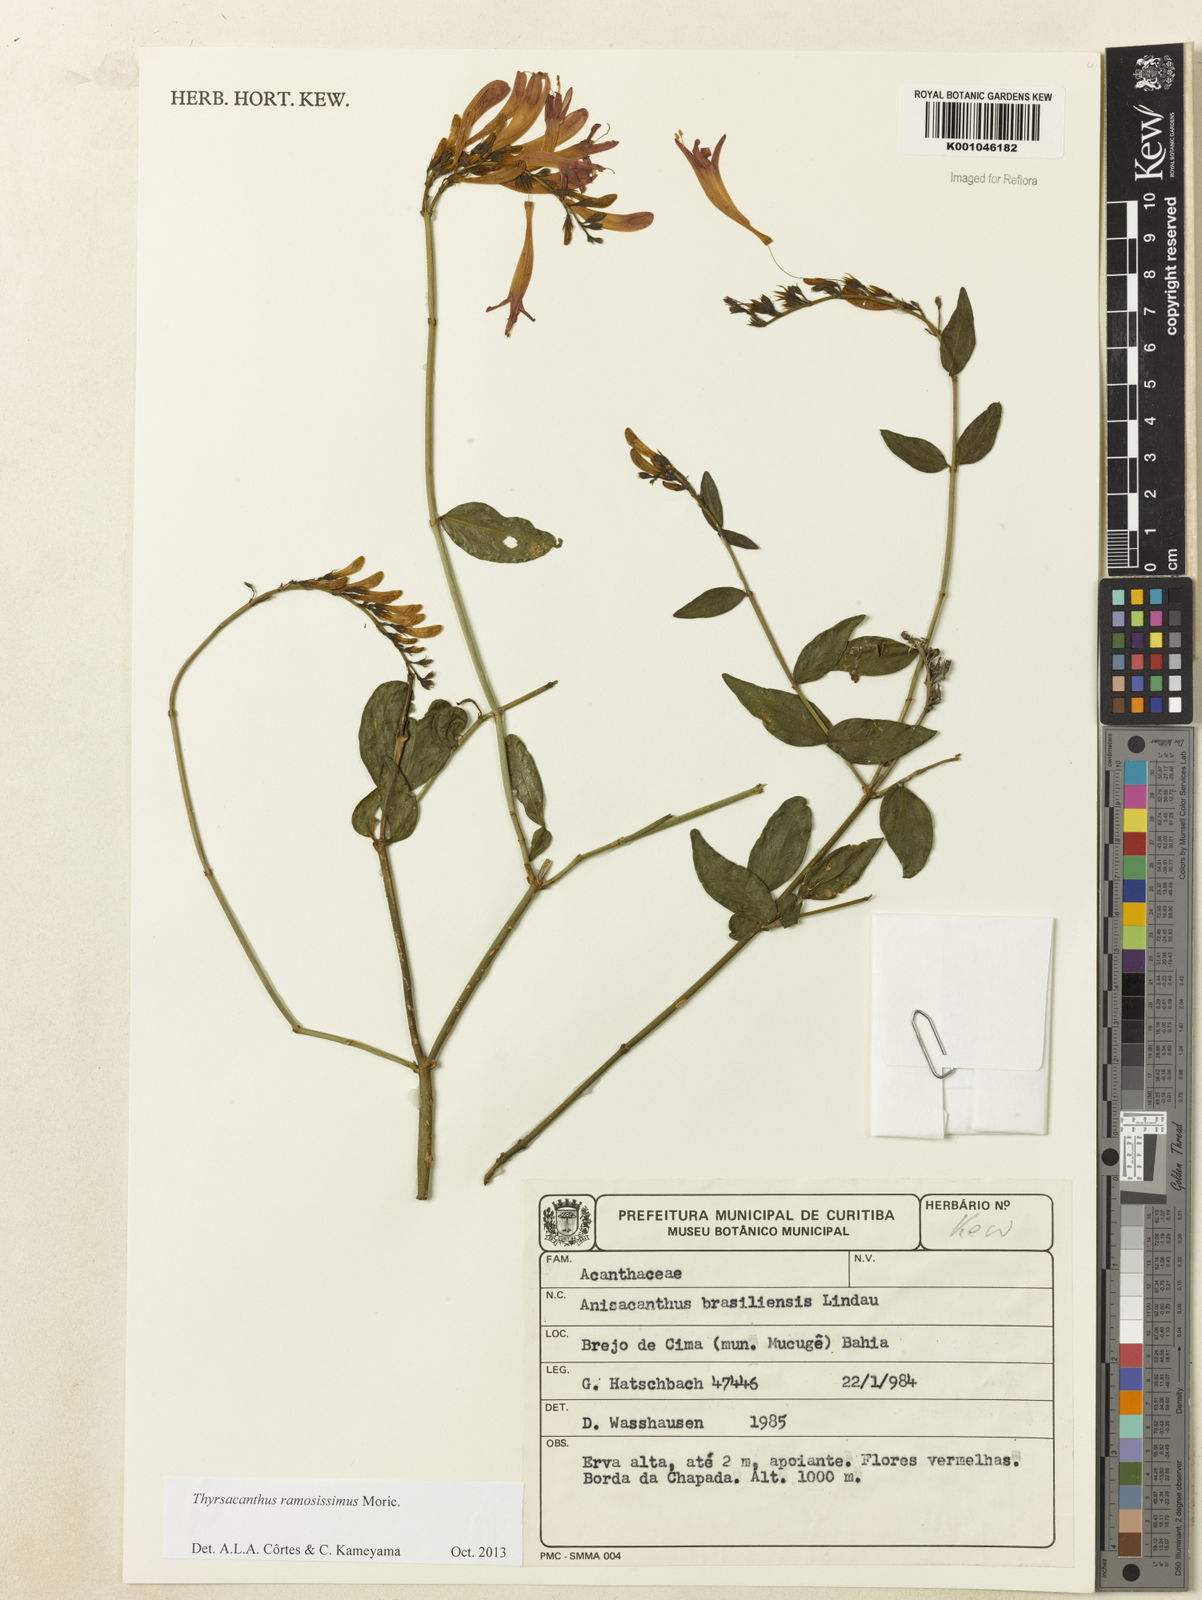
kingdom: Plantae
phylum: Tracheophyta
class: Magnoliopsida
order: Lamiales
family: Acanthaceae
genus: Thyrsacanthus
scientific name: Thyrsacanthus ramosissimus
